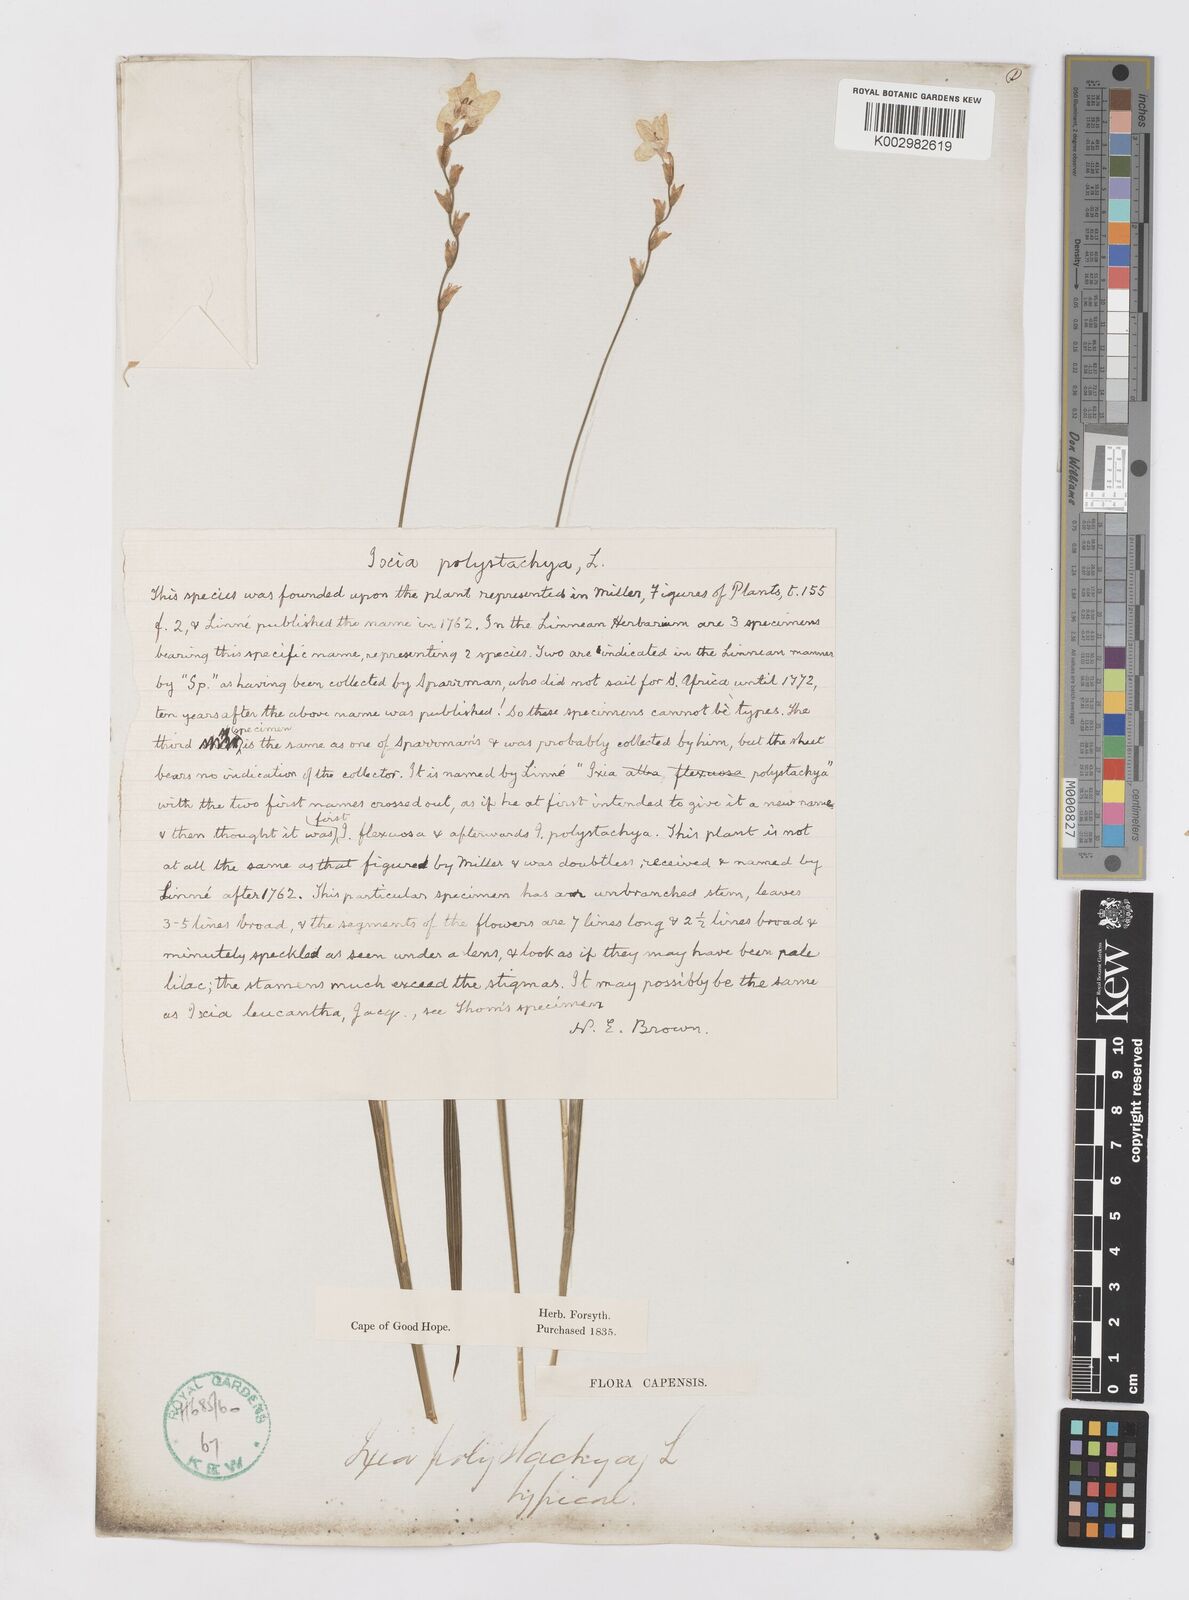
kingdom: Plantae
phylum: Tracheophyta
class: Liliopsida
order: Asparagales
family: Iridaceae
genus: Ixia
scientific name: Ixia polystachya
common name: White-and-yellow-flower cornlily
